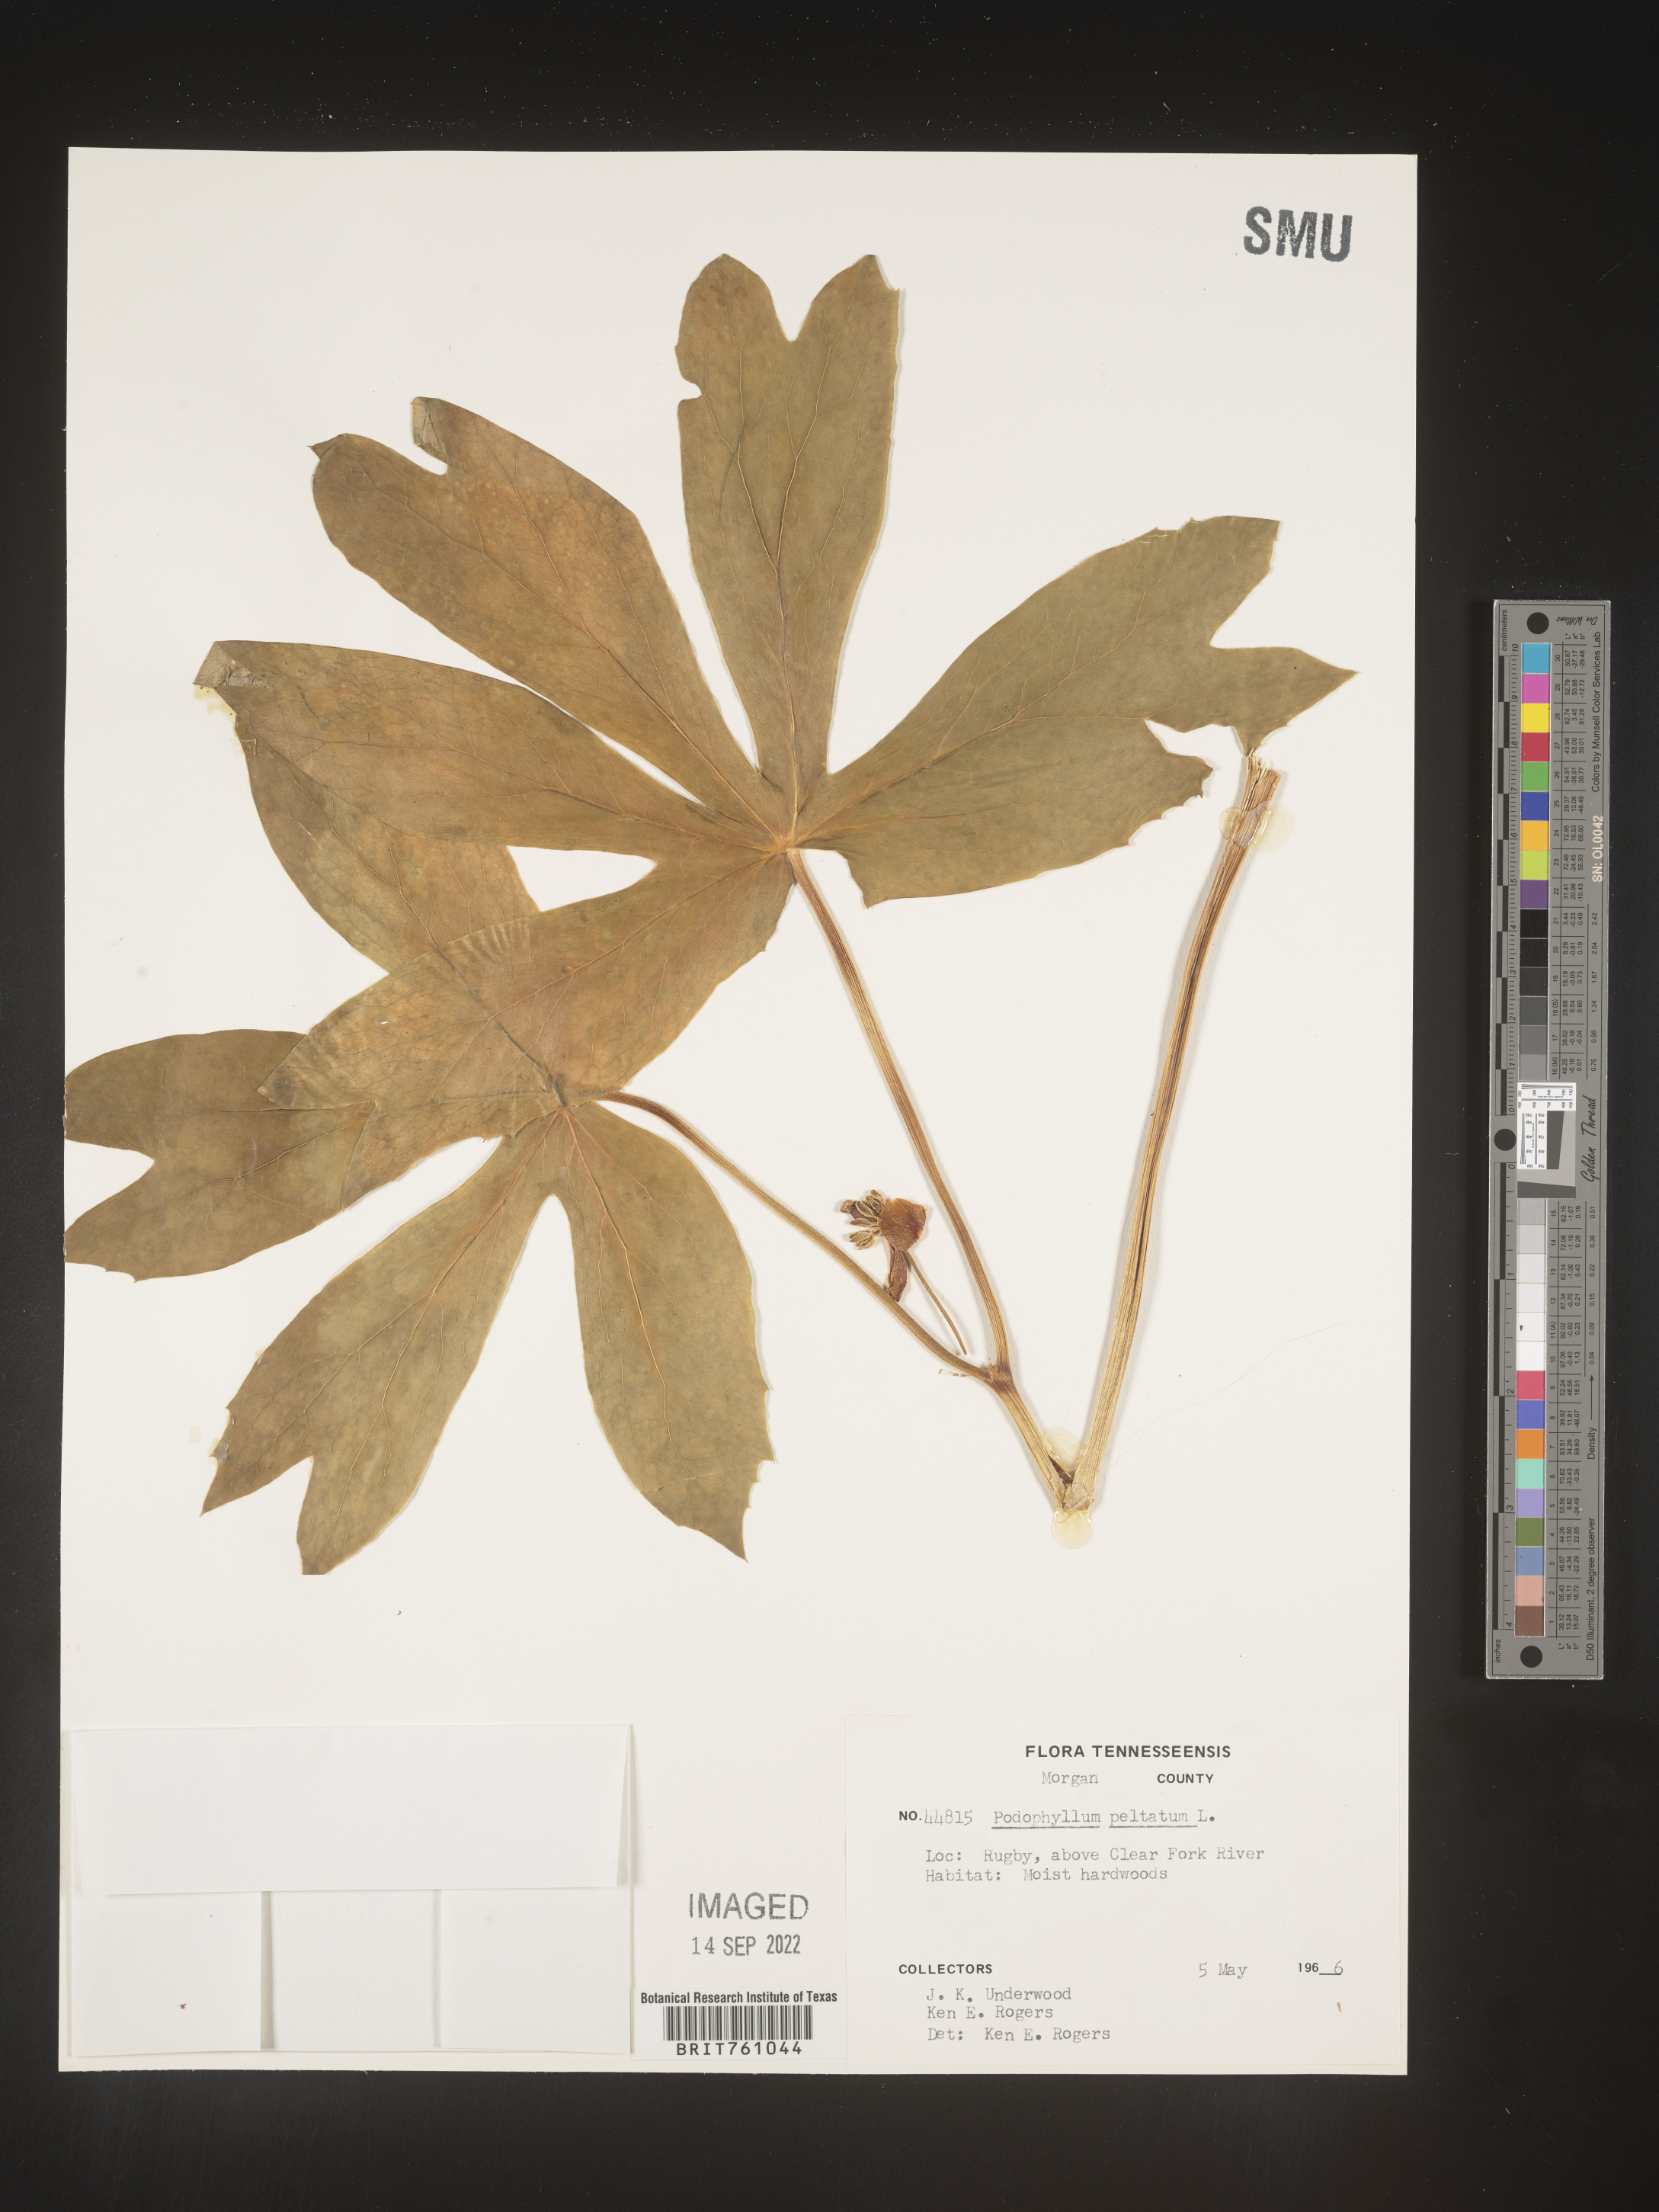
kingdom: Plantae
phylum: Tracheophyta
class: Magnoliopsida
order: Ranunculales
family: Berberidaceae
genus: Podophyllum
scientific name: Podophyllum peltatum
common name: Wild mandrake
